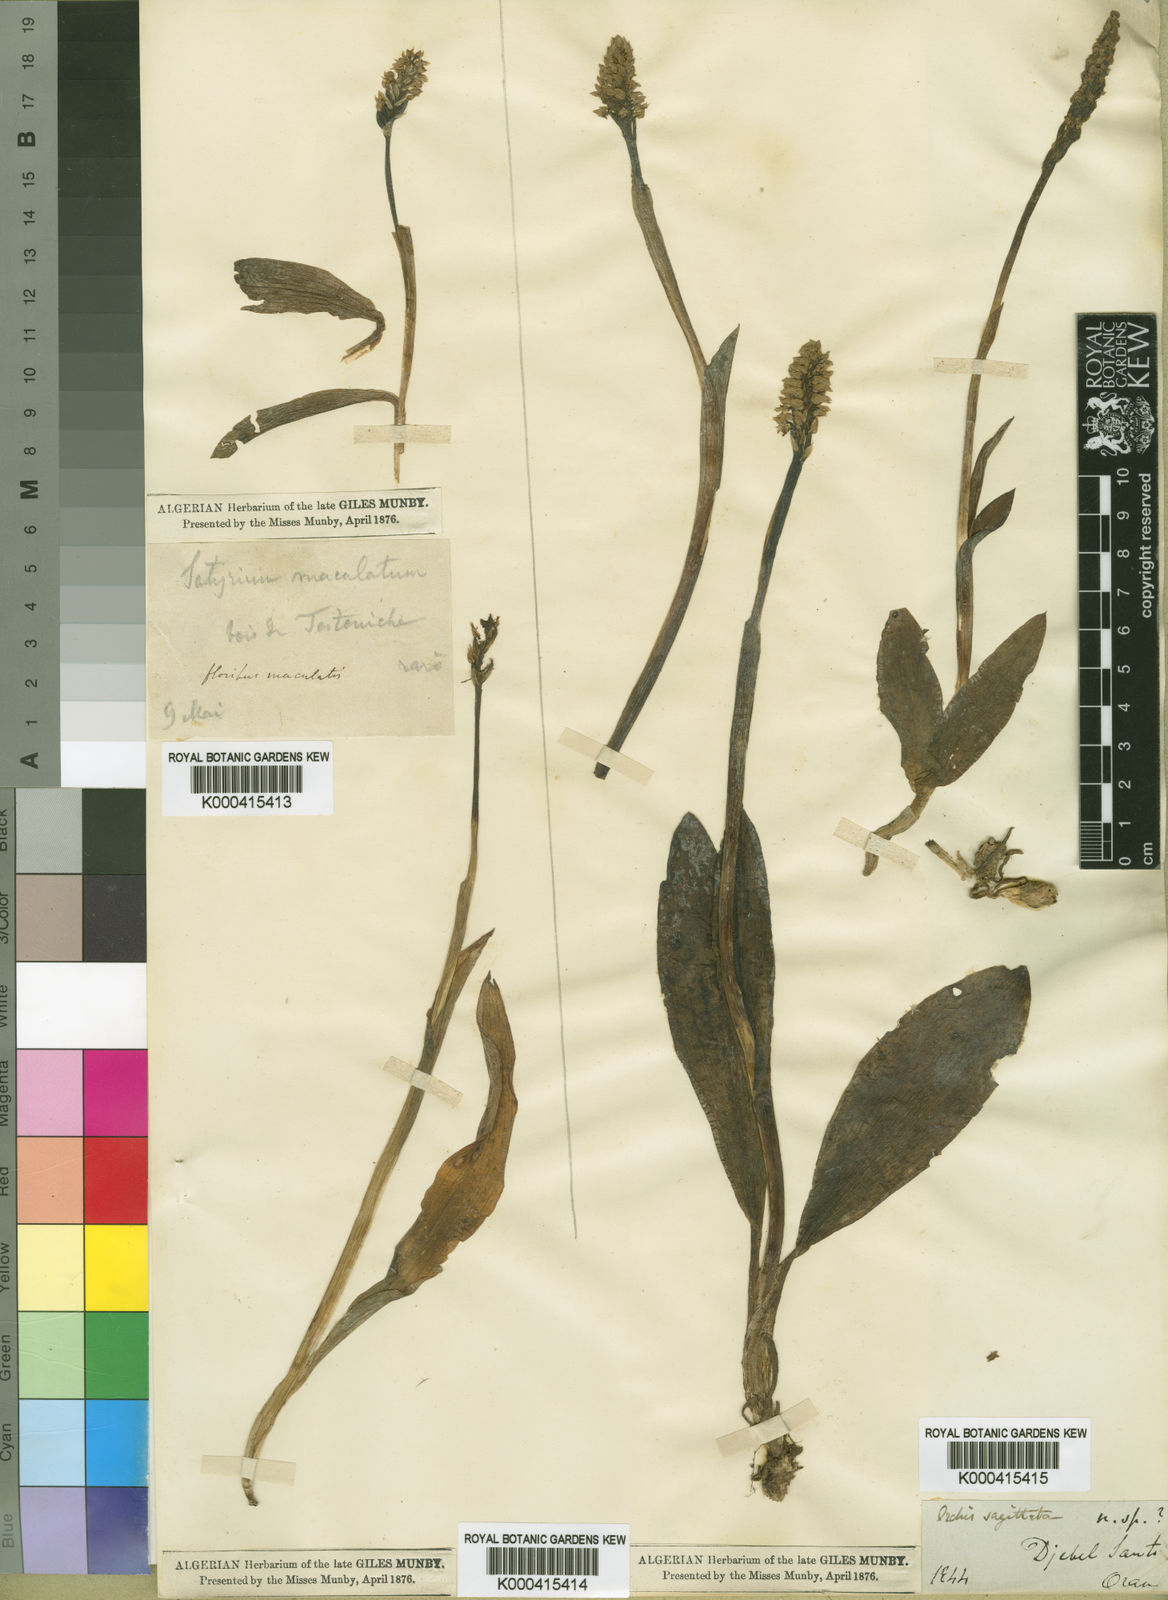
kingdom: Plantae
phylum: Tracheophyta
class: Liliopsida
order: Asparagales
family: Orchidaceae
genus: Neotinea
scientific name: Neotinea maculata
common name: Dense-flowered orchid
